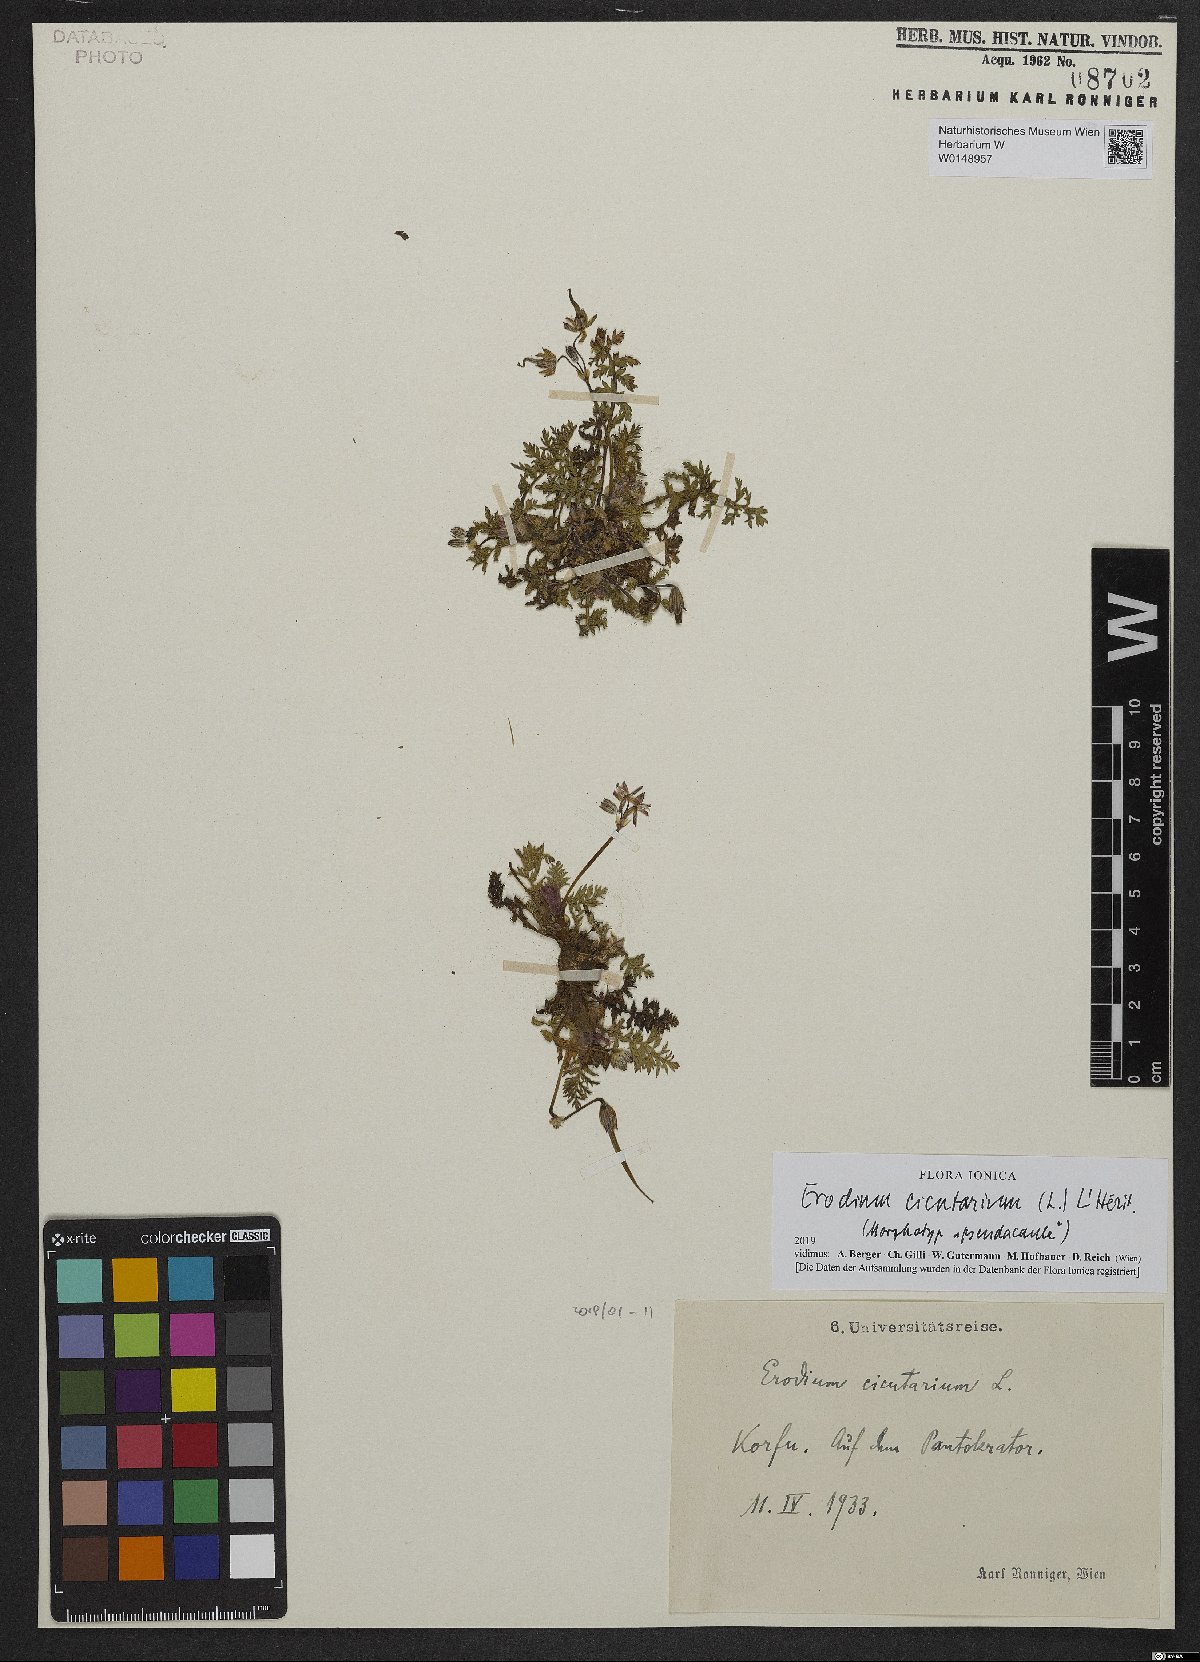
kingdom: Plantae
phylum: Tracheophyta
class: Magnoliopsida
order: Geraniales
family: Geraniaceae
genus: Erodium
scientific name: Erodium cicutarium
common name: Common stork's-bill
